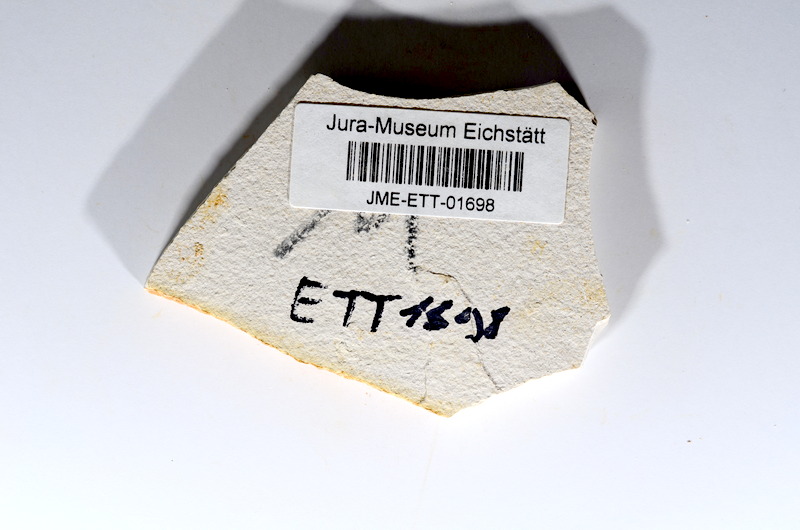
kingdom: Animalia
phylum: Chordata
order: Salmoniformes
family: Orthogonikleithridae
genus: Orthogonikleithrus
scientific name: Orthogonikleithrus hoelli
